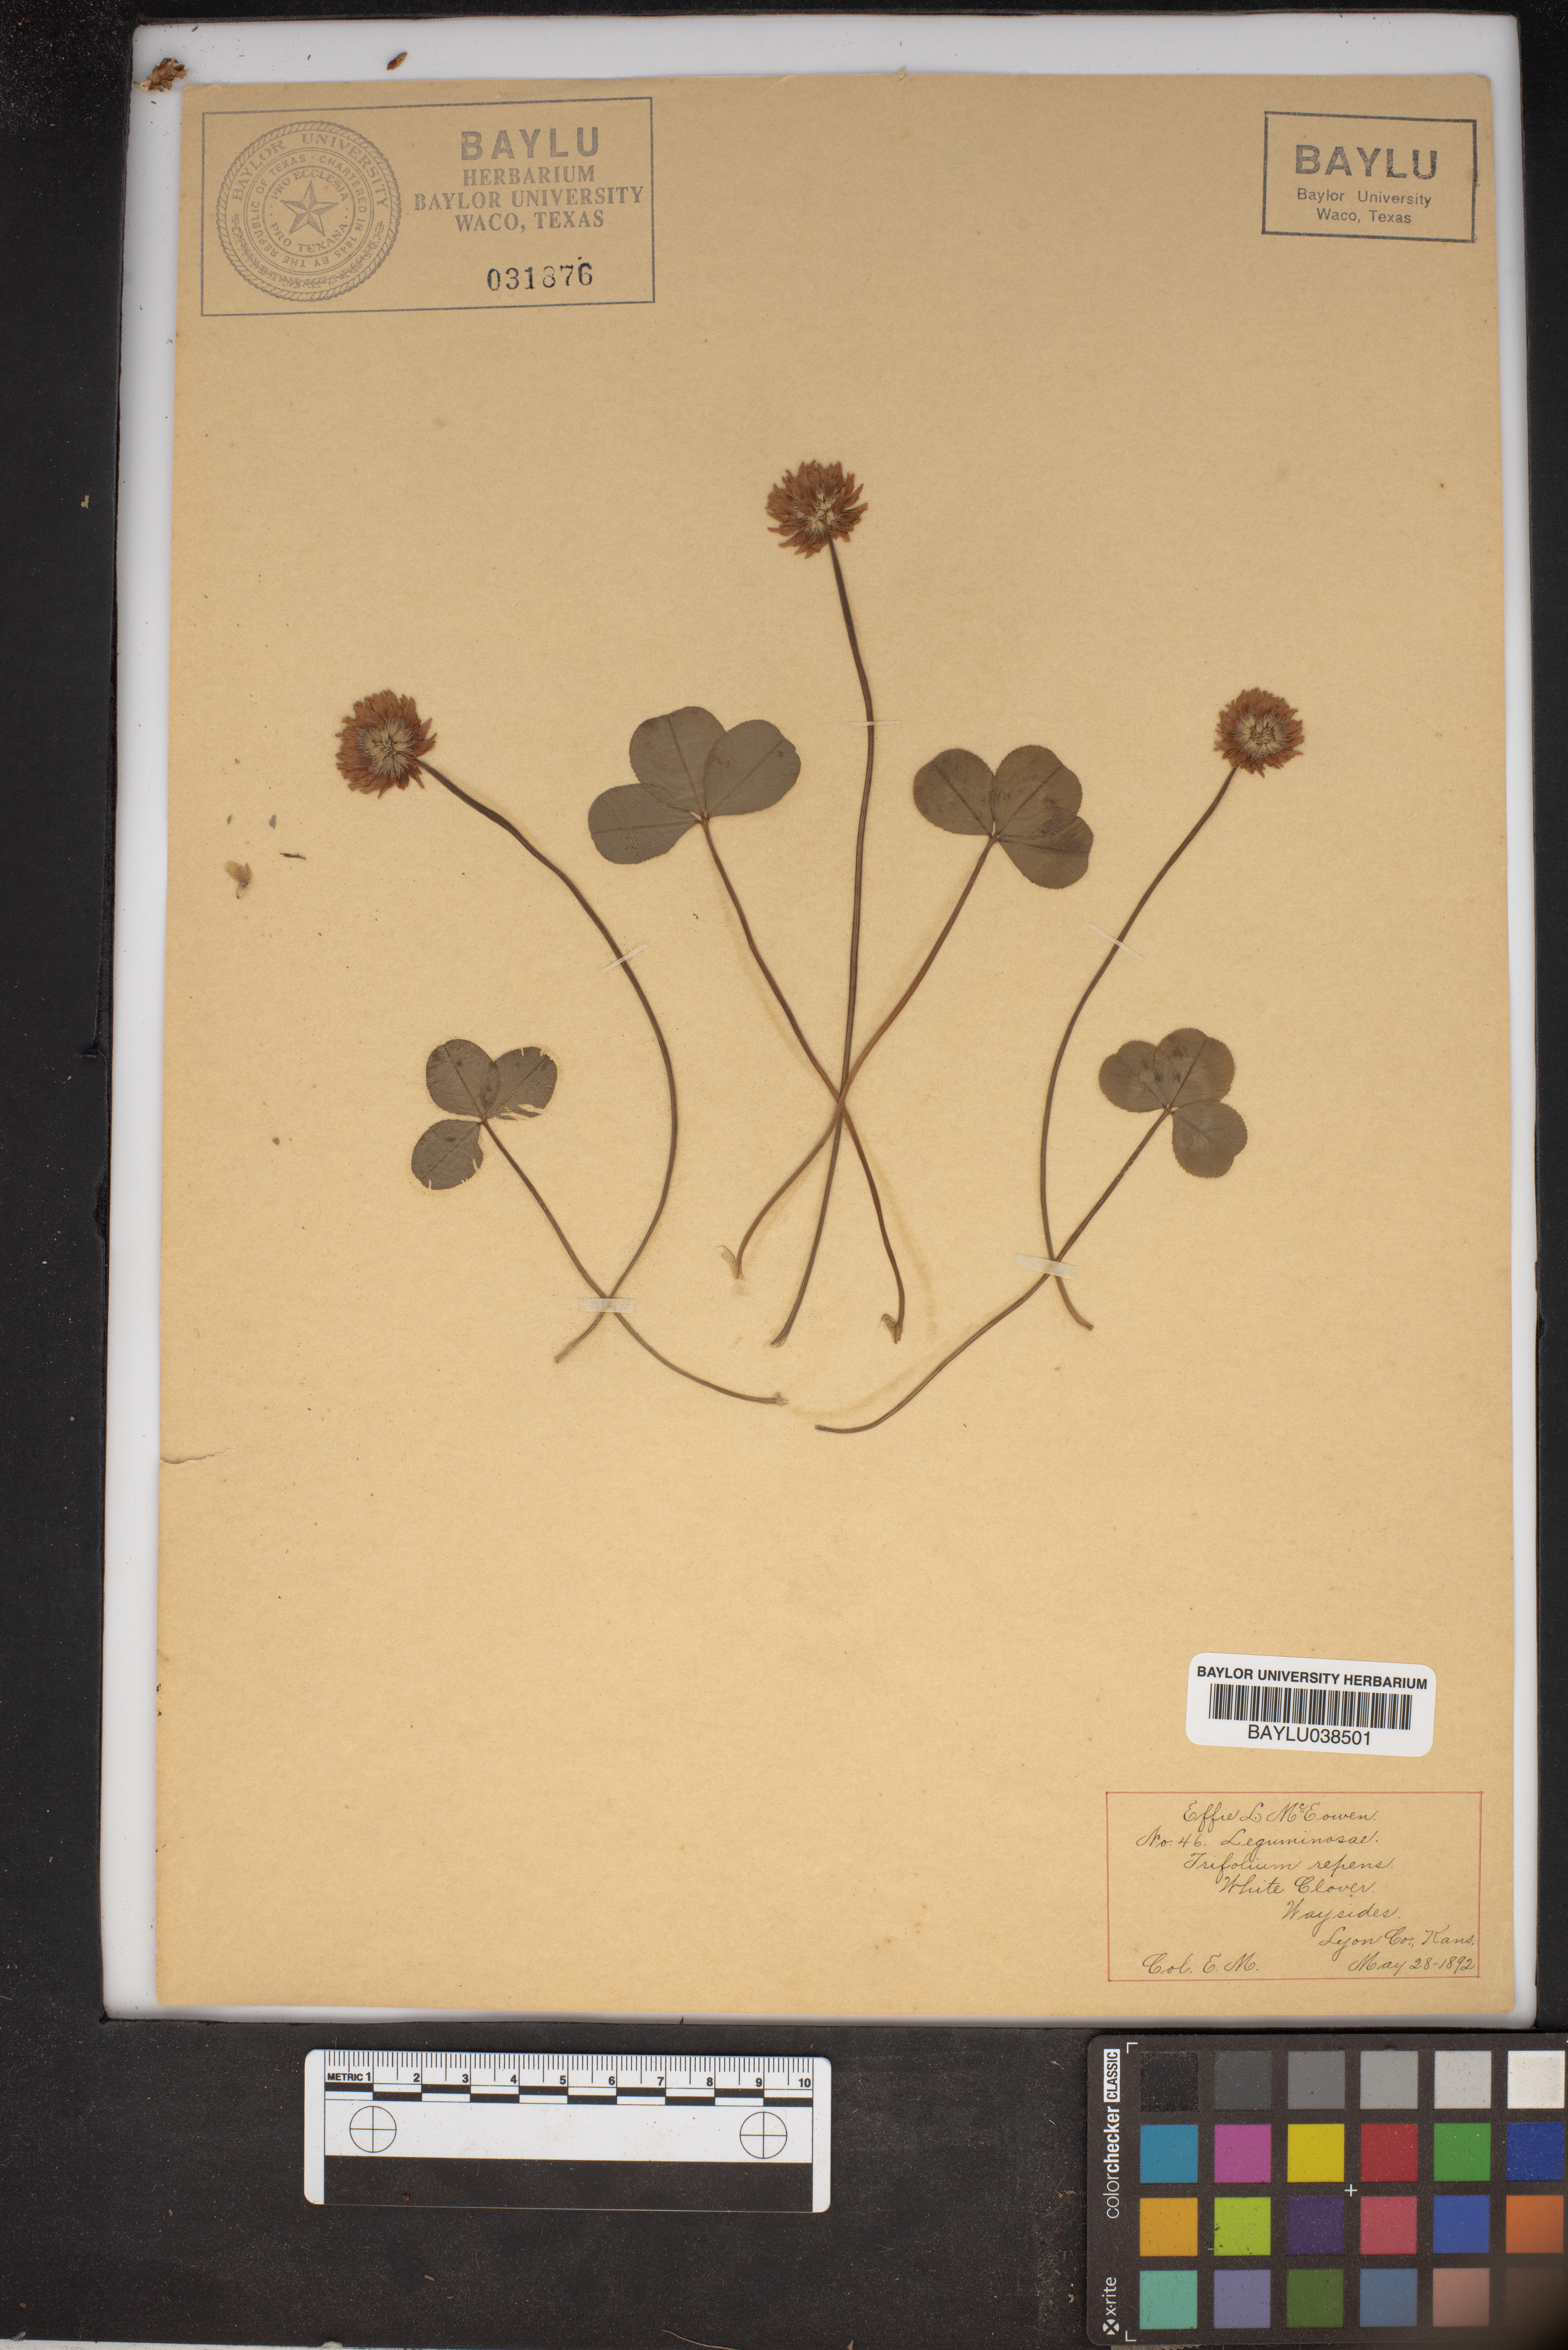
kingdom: Plantae
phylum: Tracheophyta
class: Magnoliopsida
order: Fabales
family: Fabaceae
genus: Trifolium
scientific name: Trifolium repens
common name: White clover
